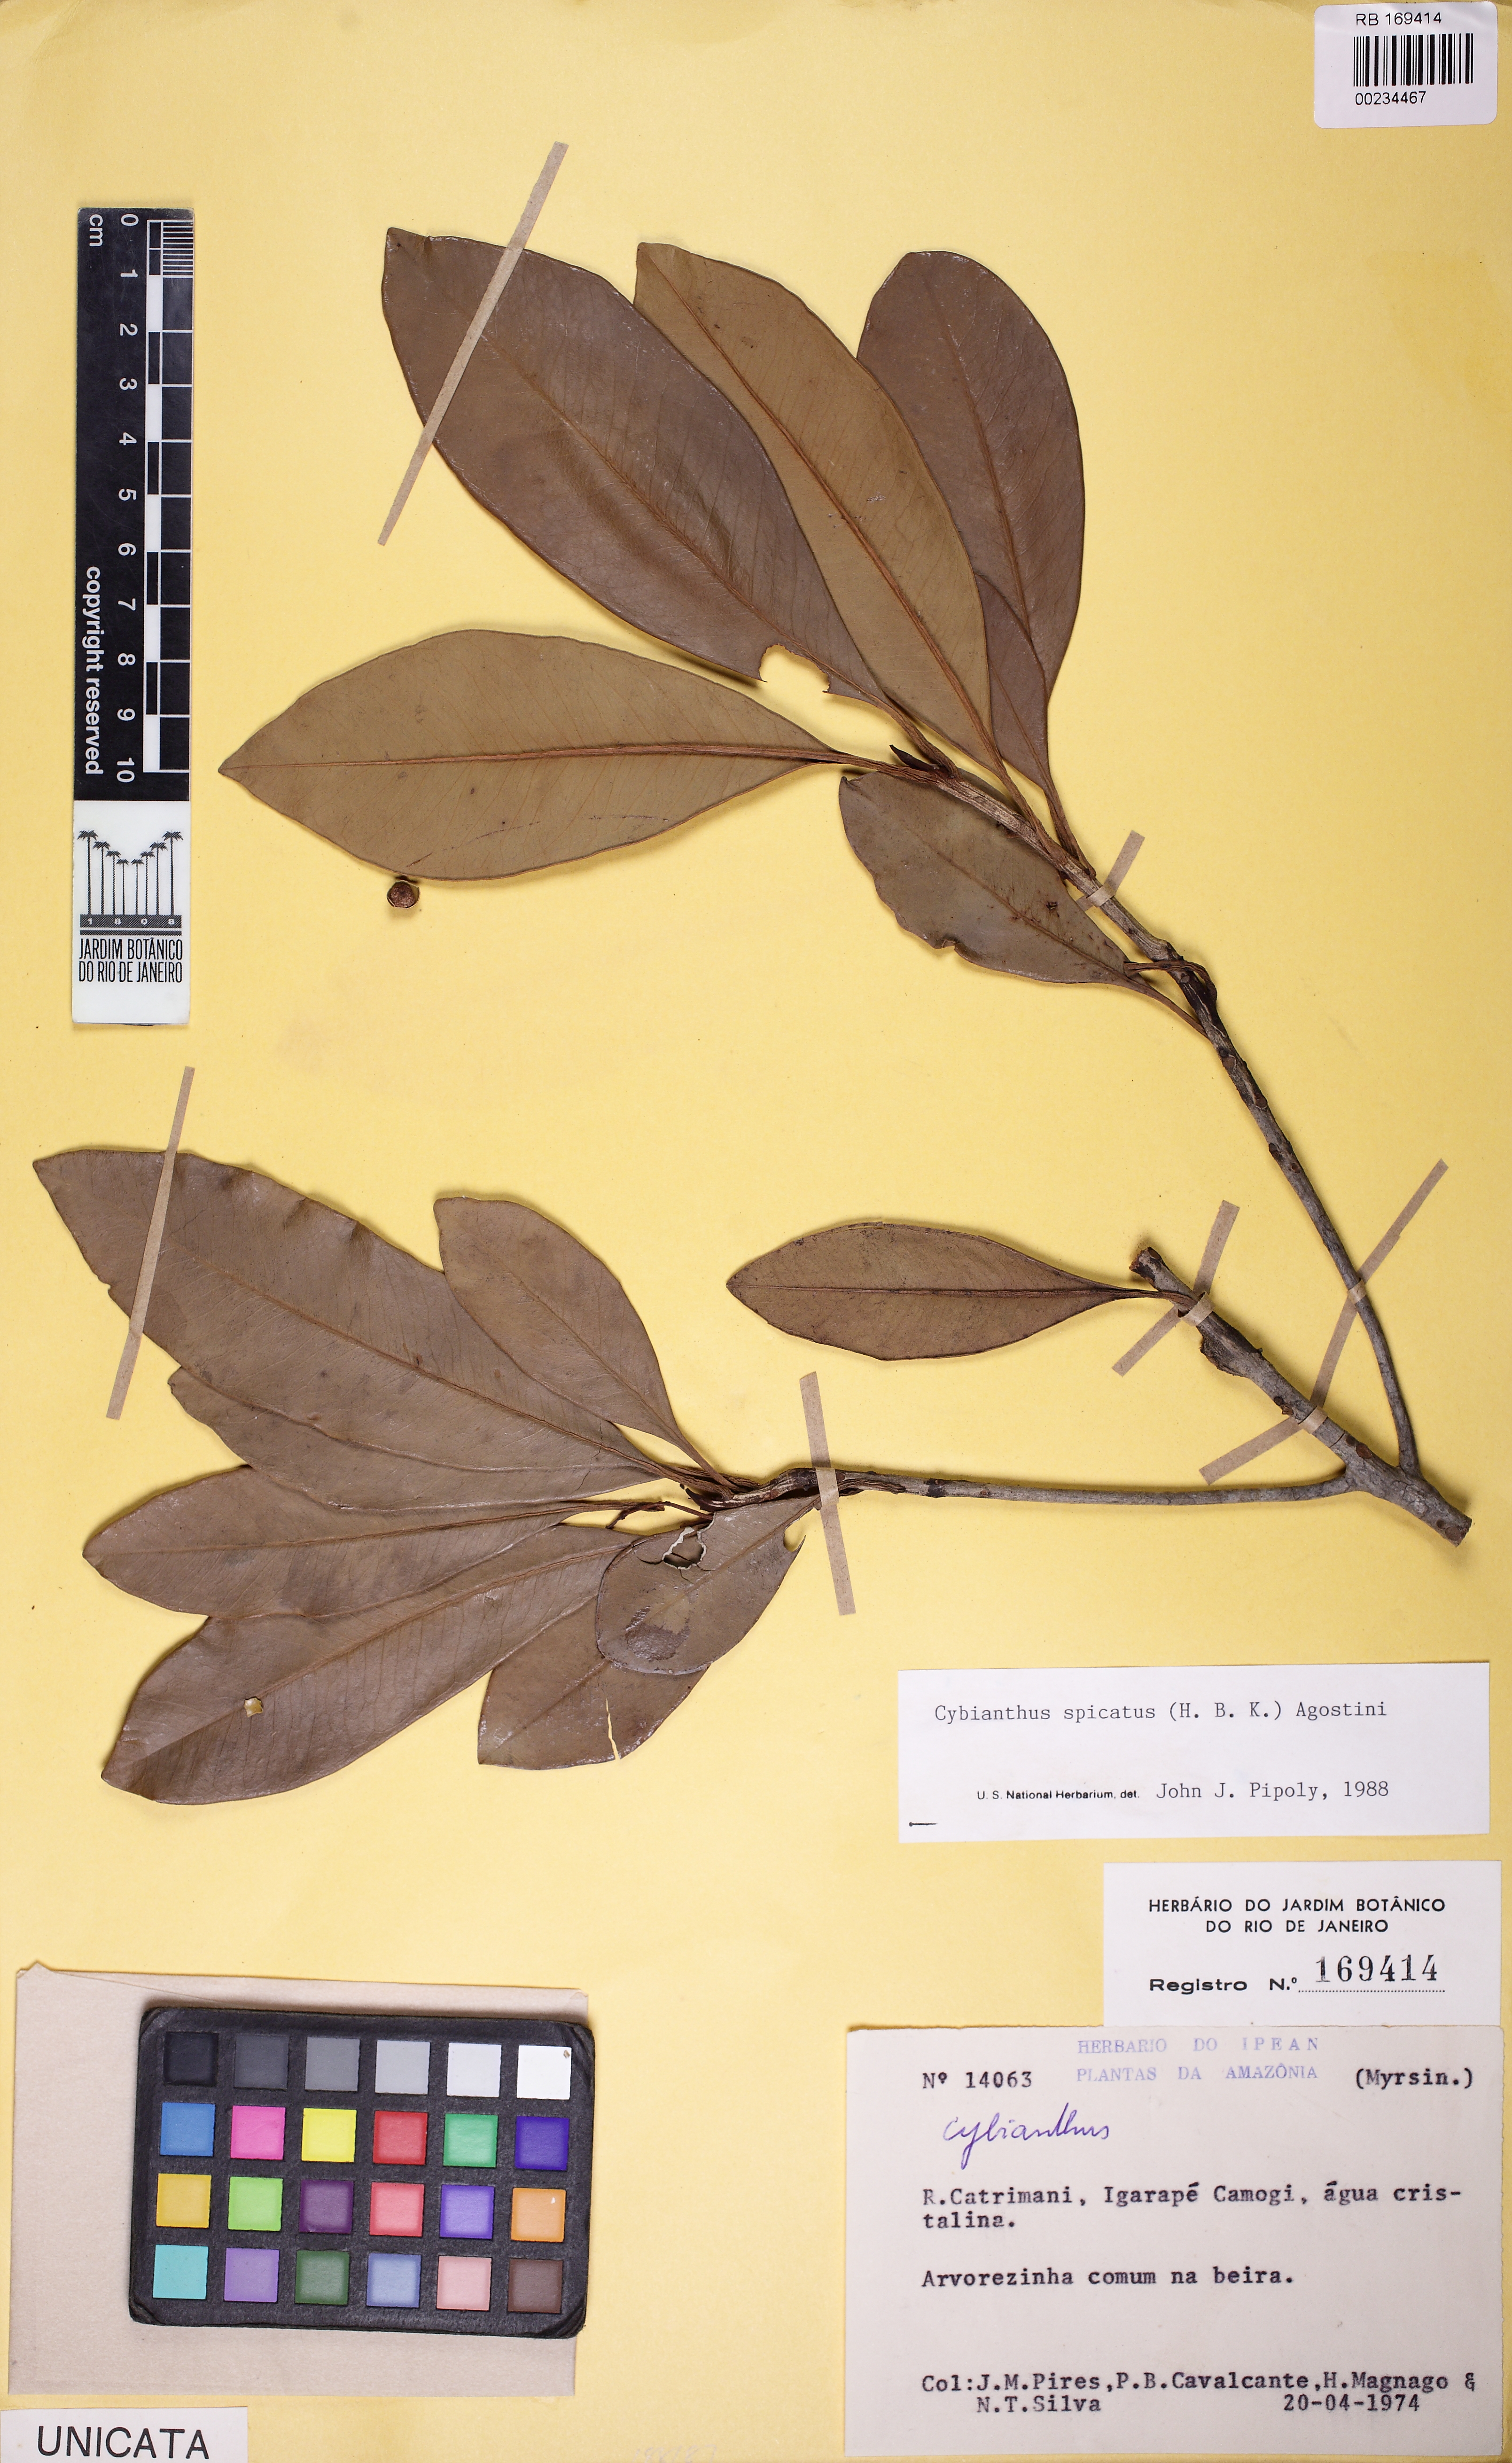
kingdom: Plantae
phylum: Tracheophyta
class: Magnoliopsida
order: Ericales
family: Primulaceae
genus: Cybianthus
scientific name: Cybianthus spicatus
